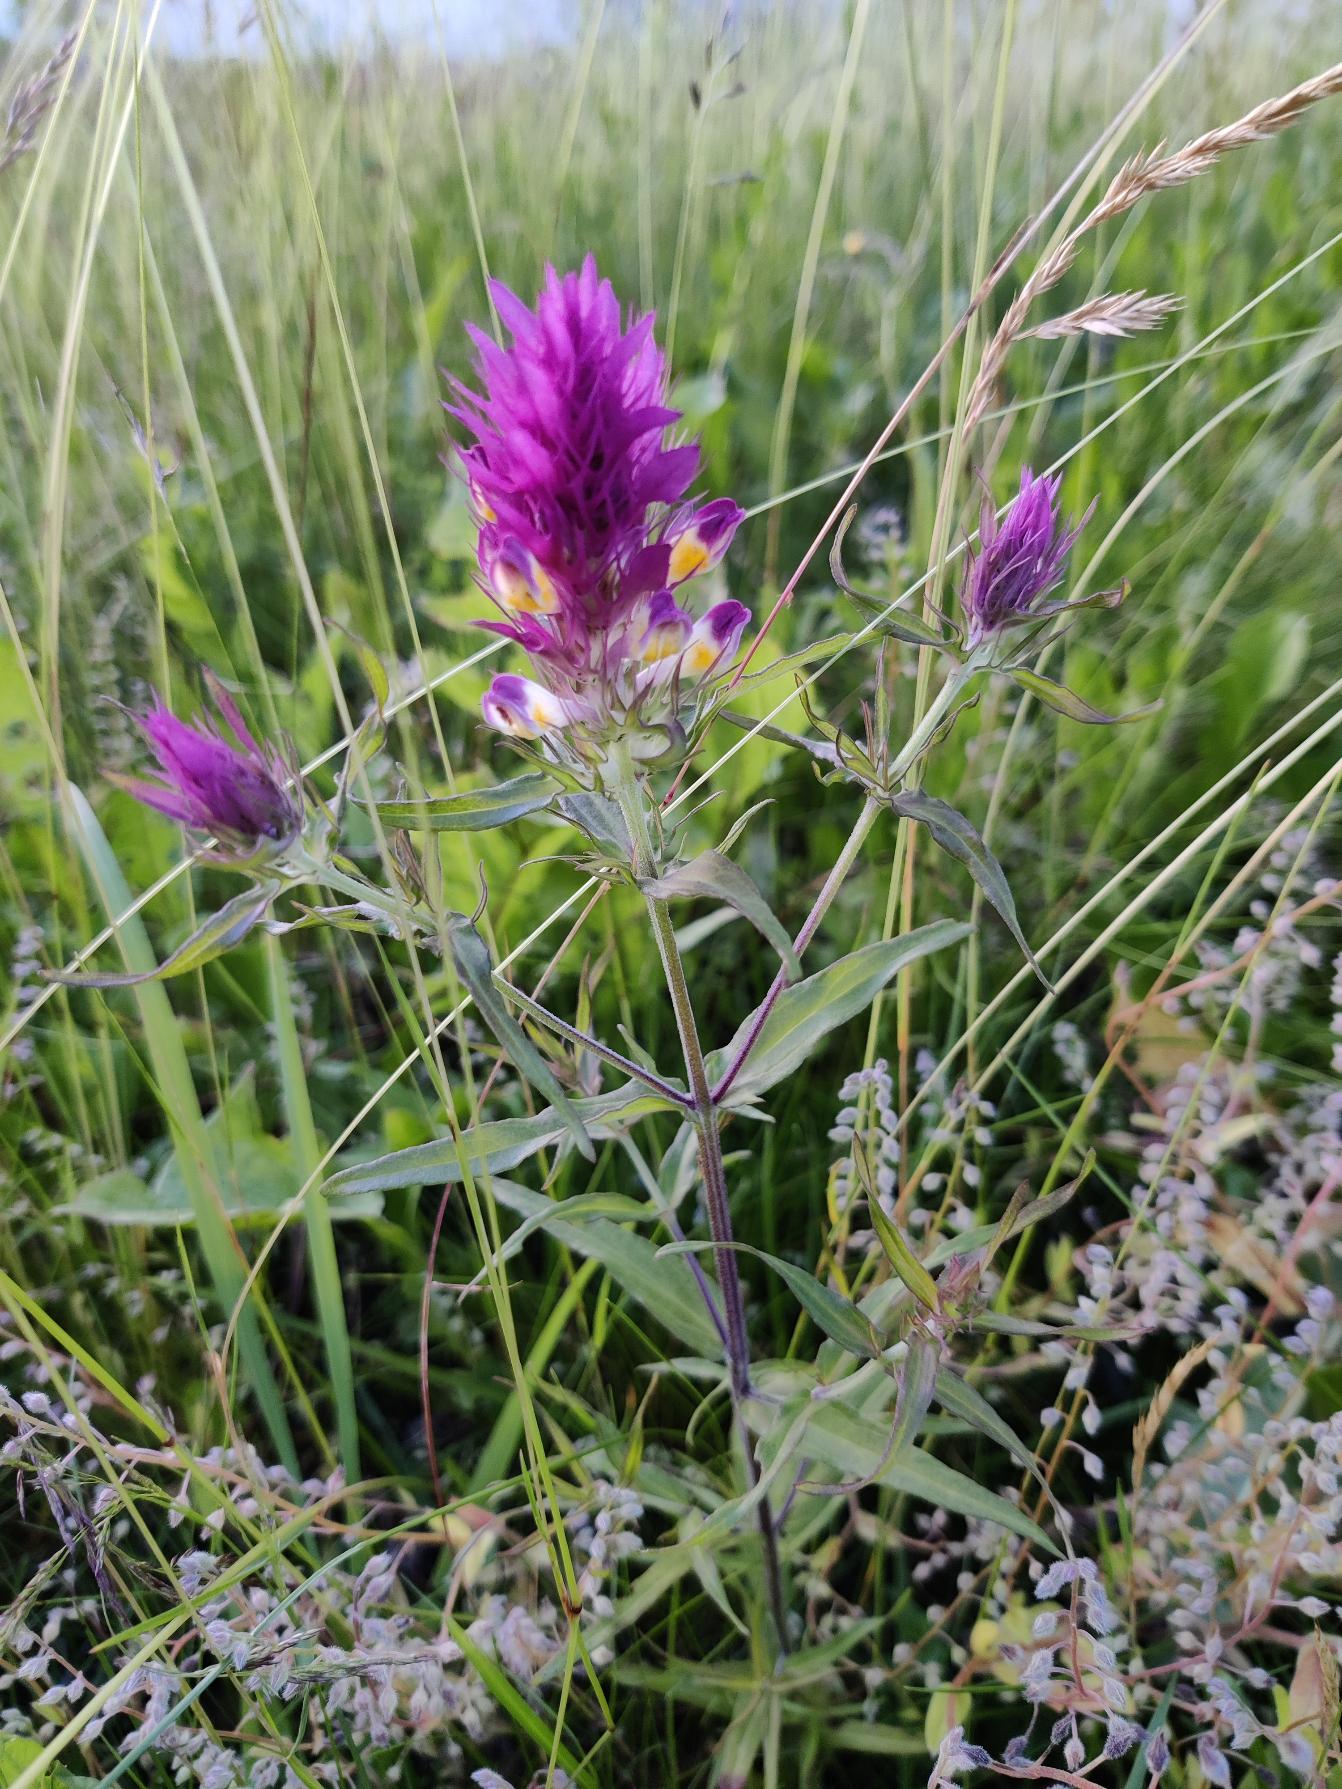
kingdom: Plantae
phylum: Tracheophyta
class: Magnoliopsida
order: Lamiales
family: Orobanchaceae
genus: Melampyrum
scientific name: Melampyrum arvense
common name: Ager-kohvede
